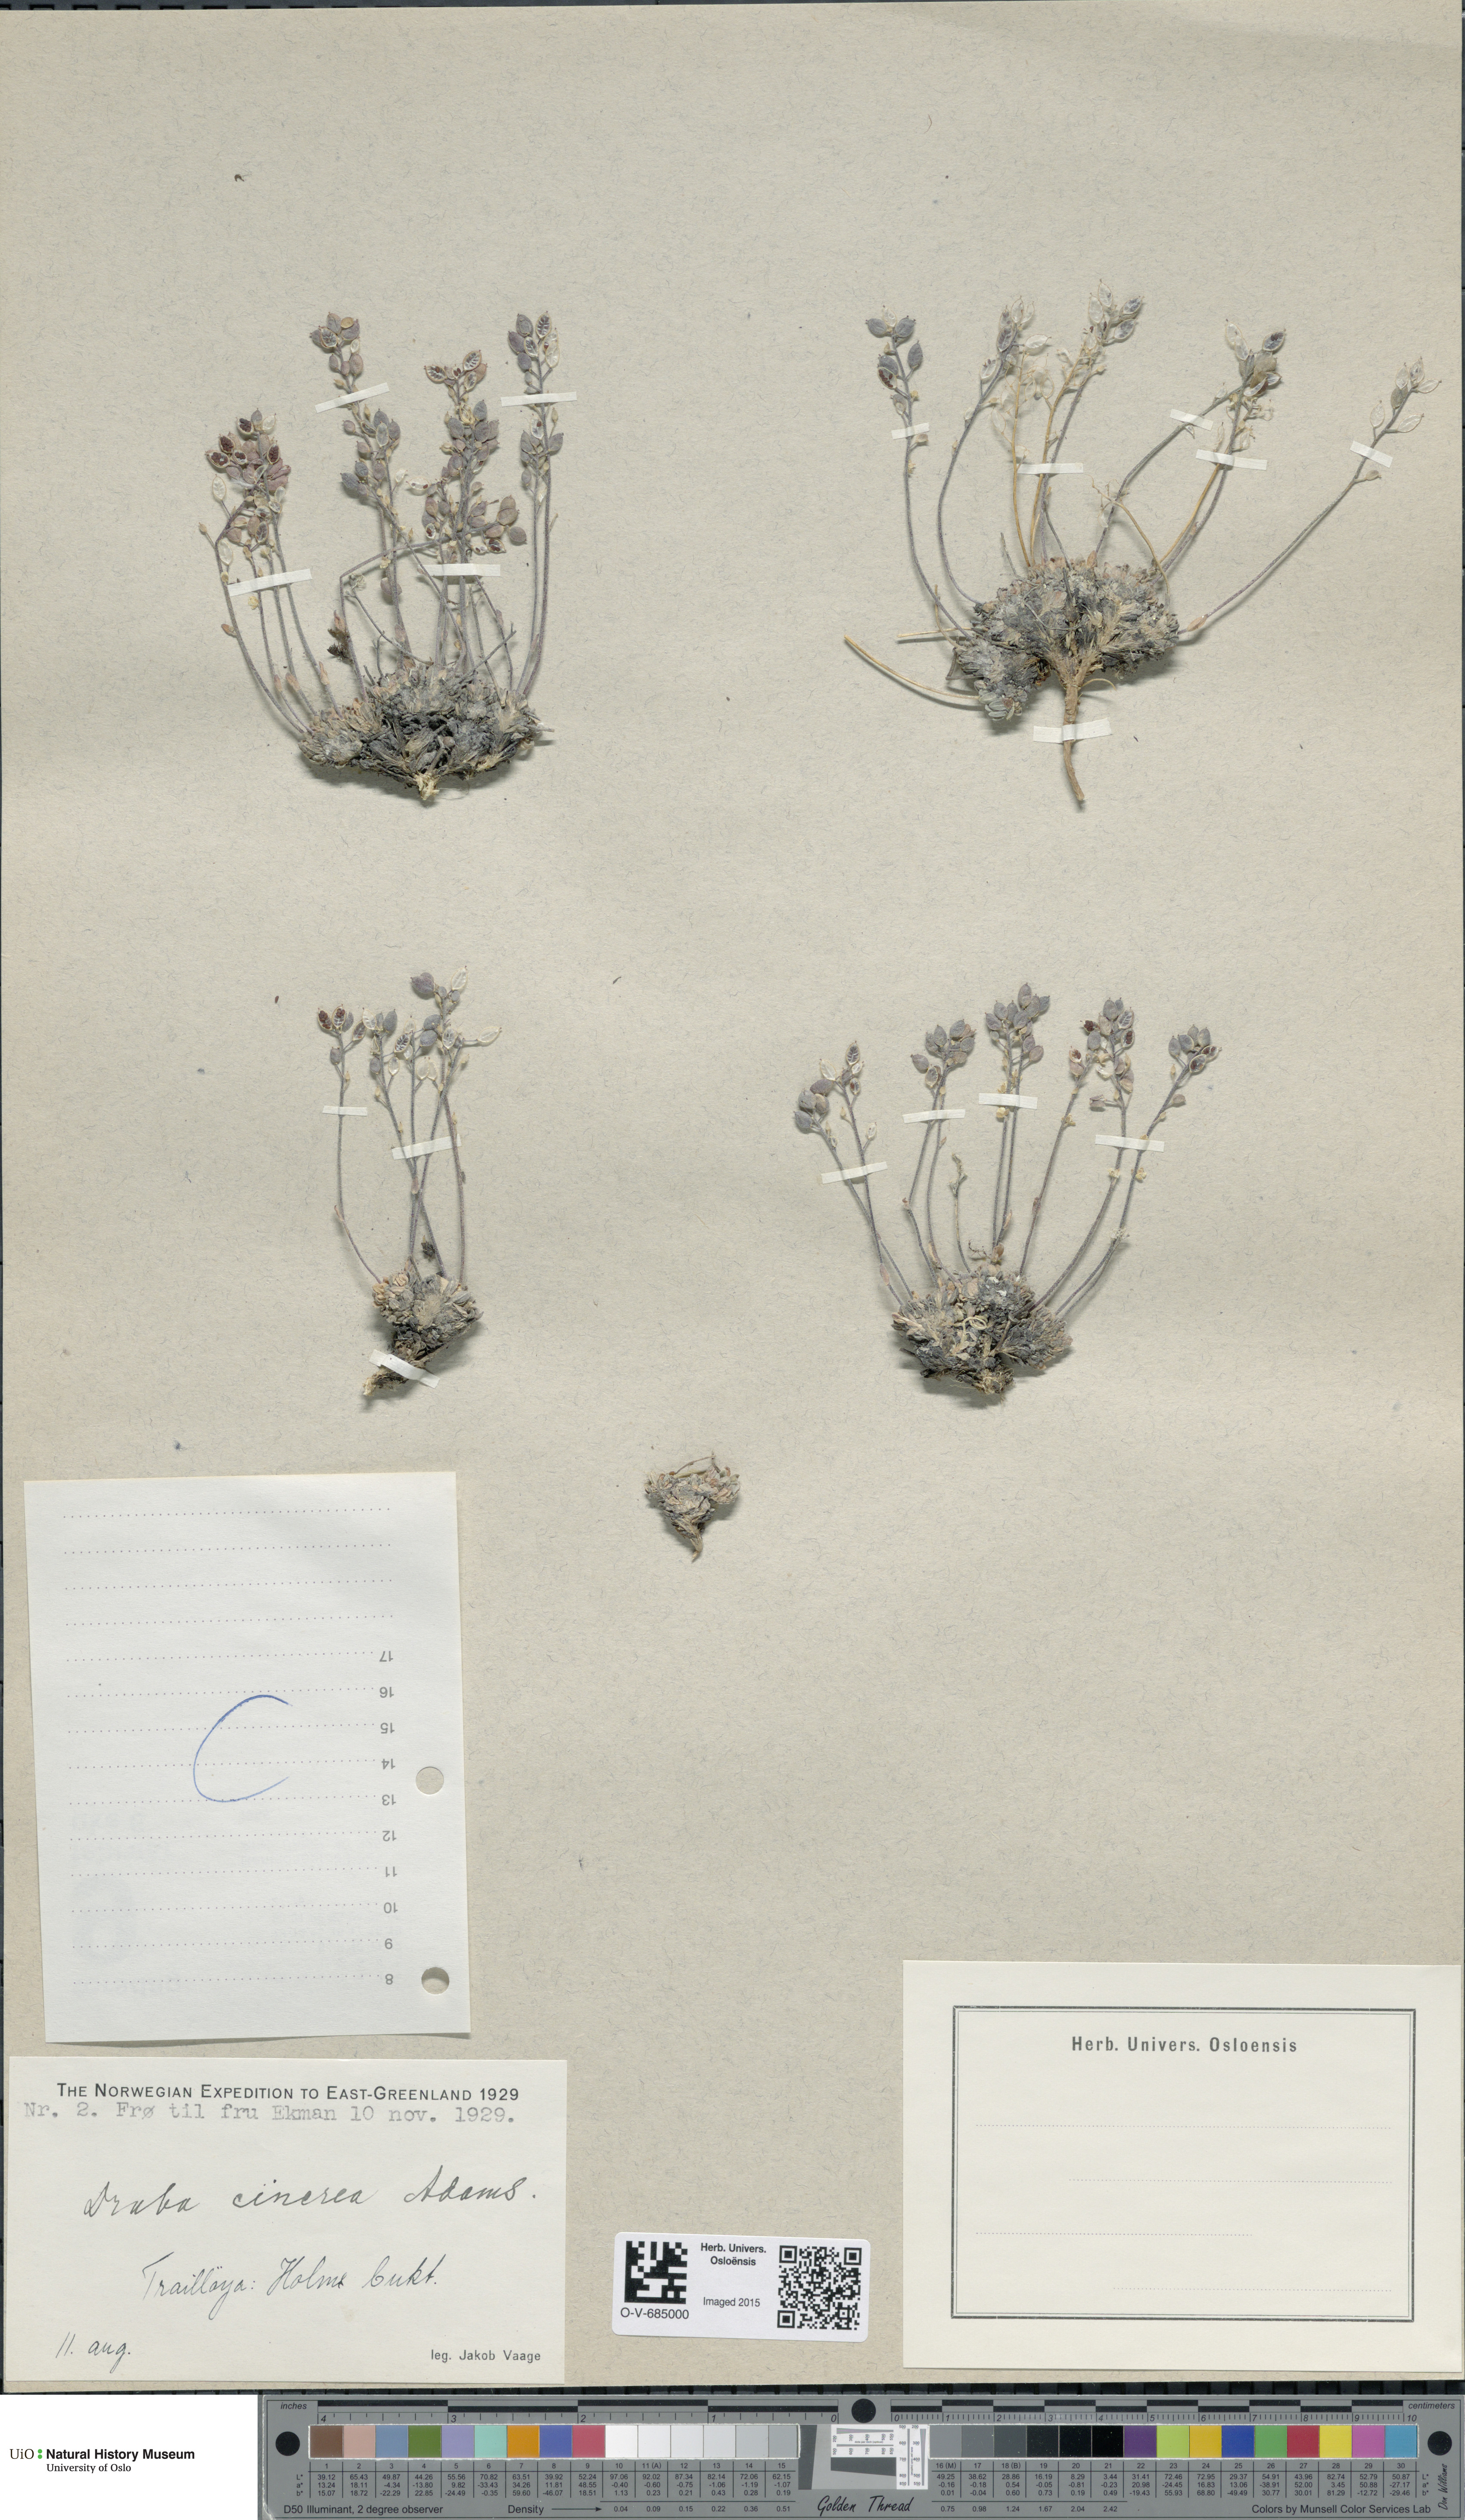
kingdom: Plantae
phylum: Tracheophyta
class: Magnoliopsida
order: Brassicales
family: Brassicaceae
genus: Draba
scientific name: Draba cinerea
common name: Ash-coloured whitlow-grass
